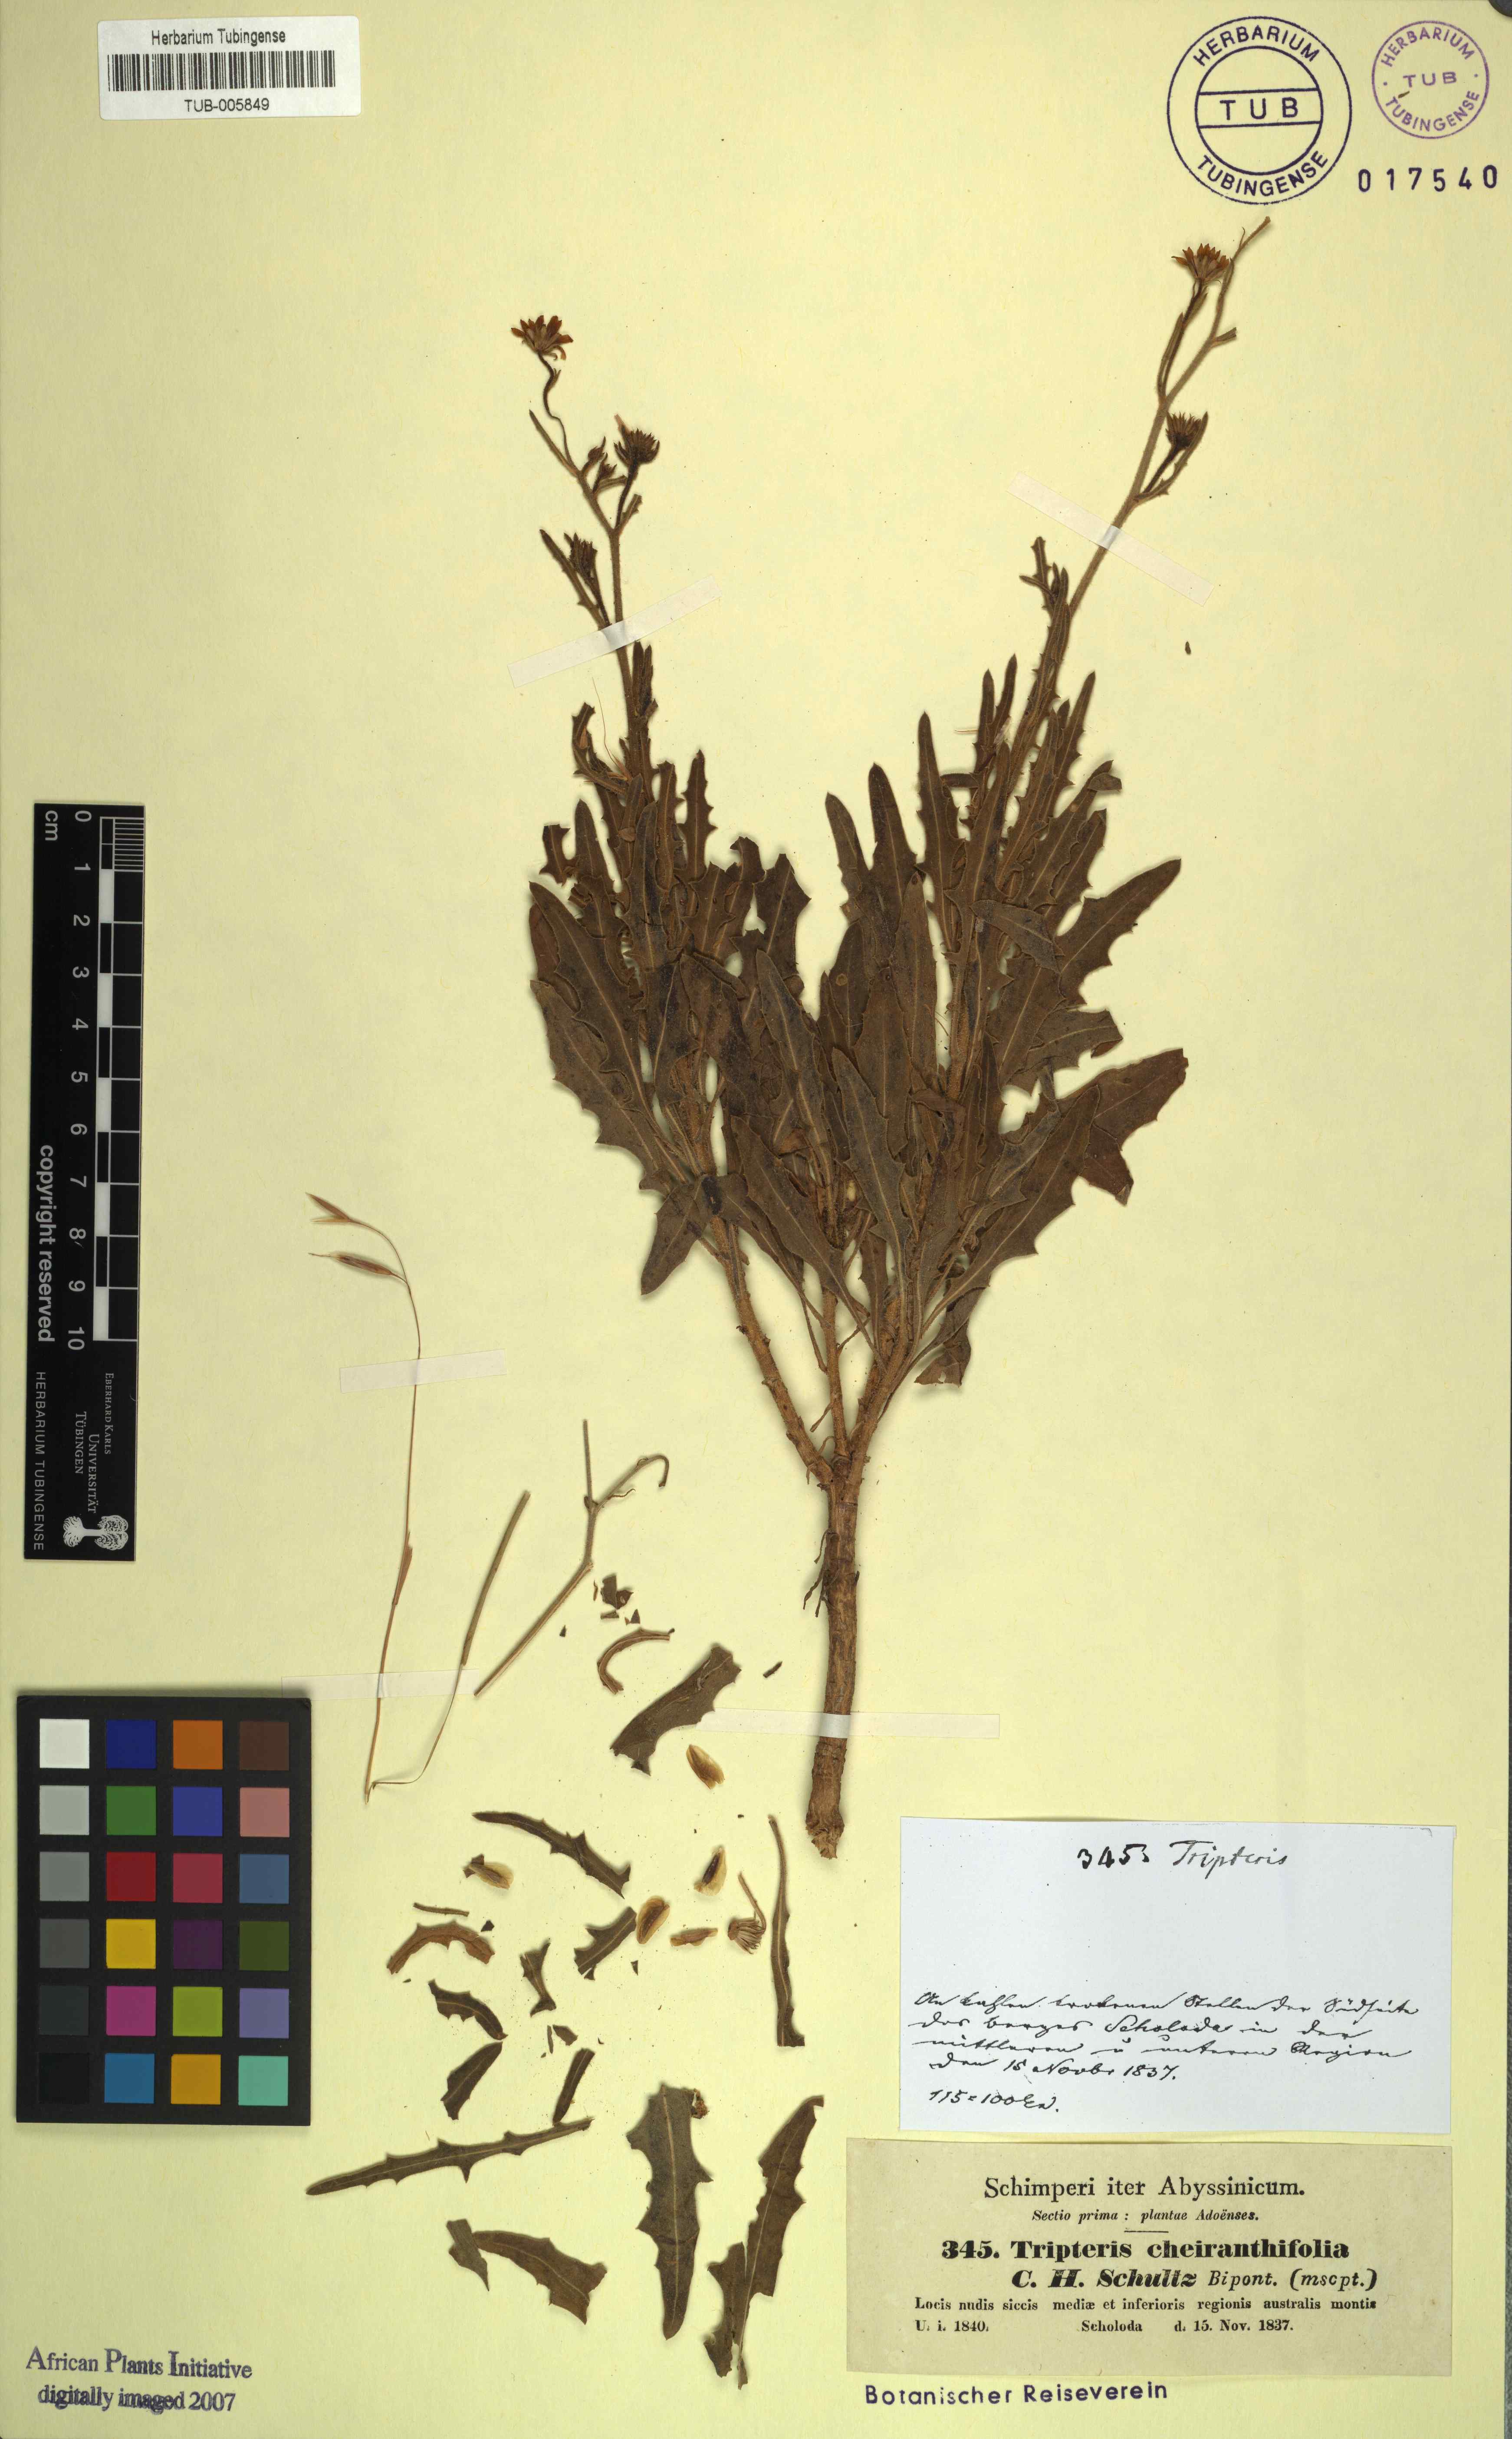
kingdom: Plantae
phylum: Tracheophyta
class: Magnoliopsida
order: Asterales
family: Asteraceae
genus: Osteospermum
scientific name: Osteospermum vaillantii
